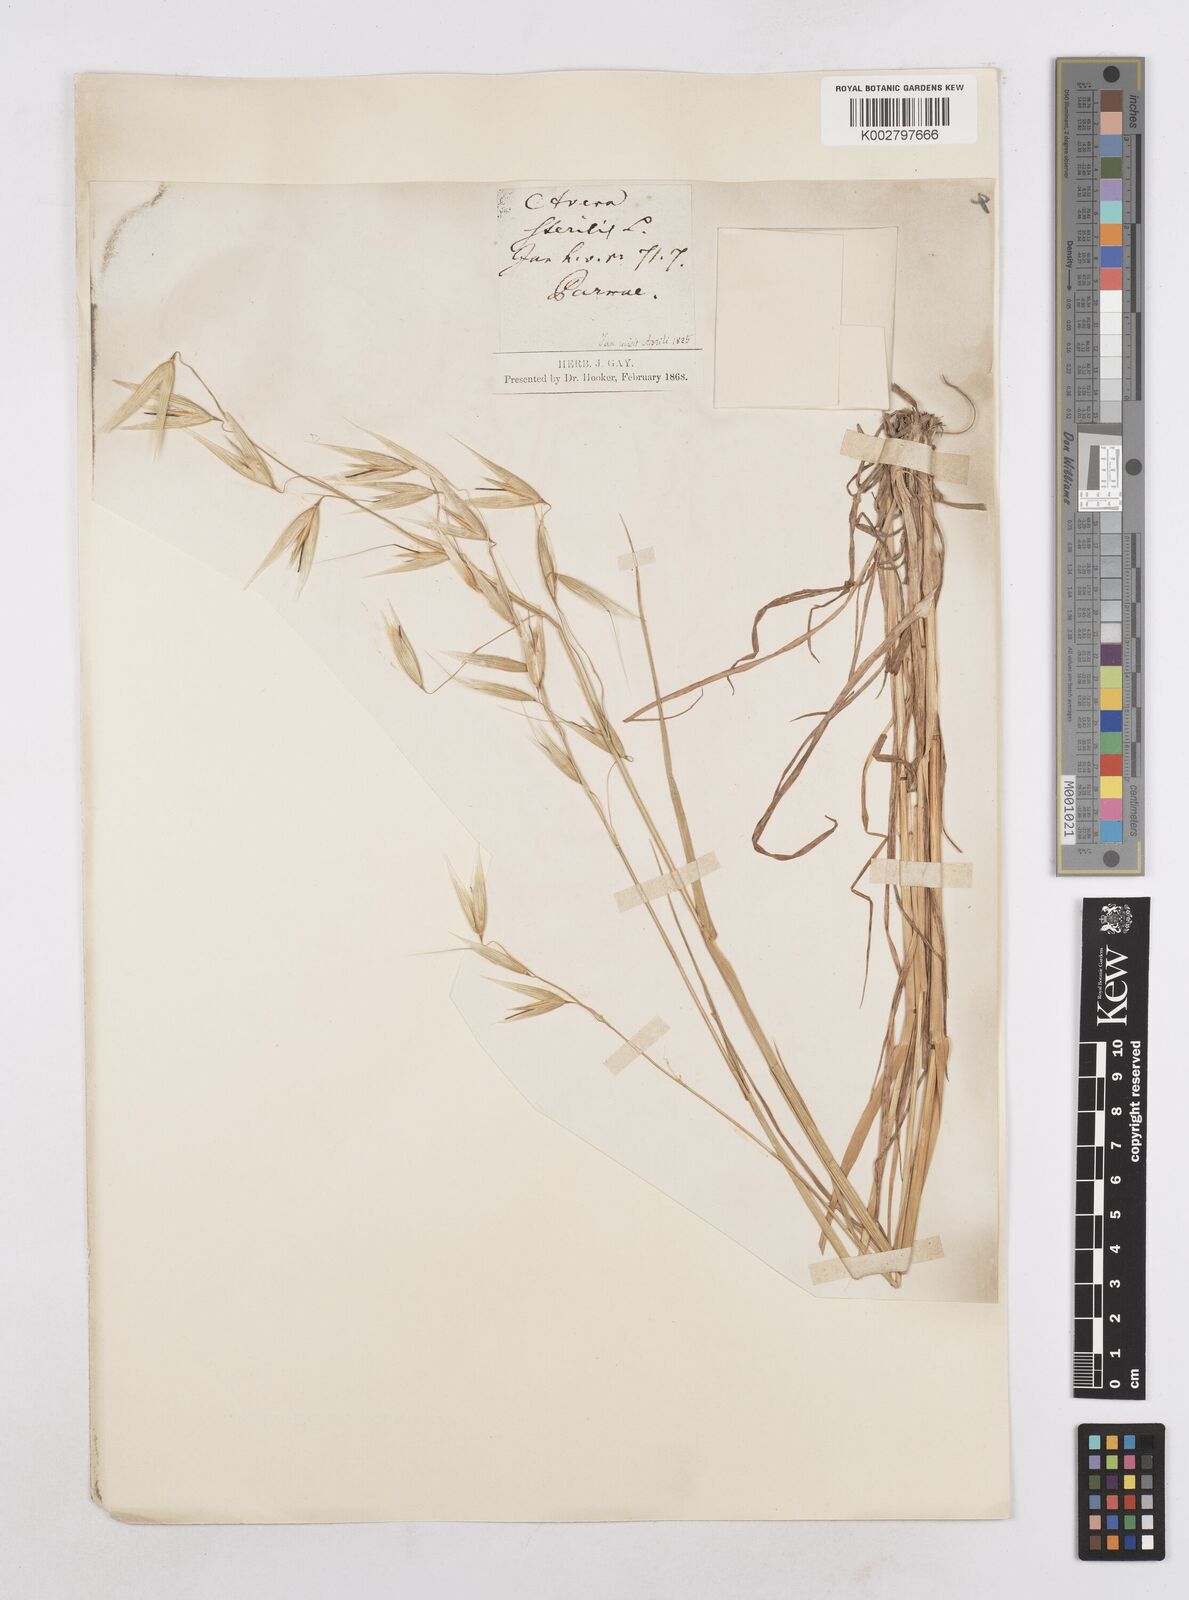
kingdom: Plantae
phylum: Tracheophyta
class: Liliopsida
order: Poales
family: Poaceae
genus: Avena
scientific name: Avena byzantina
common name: Algerian oat
